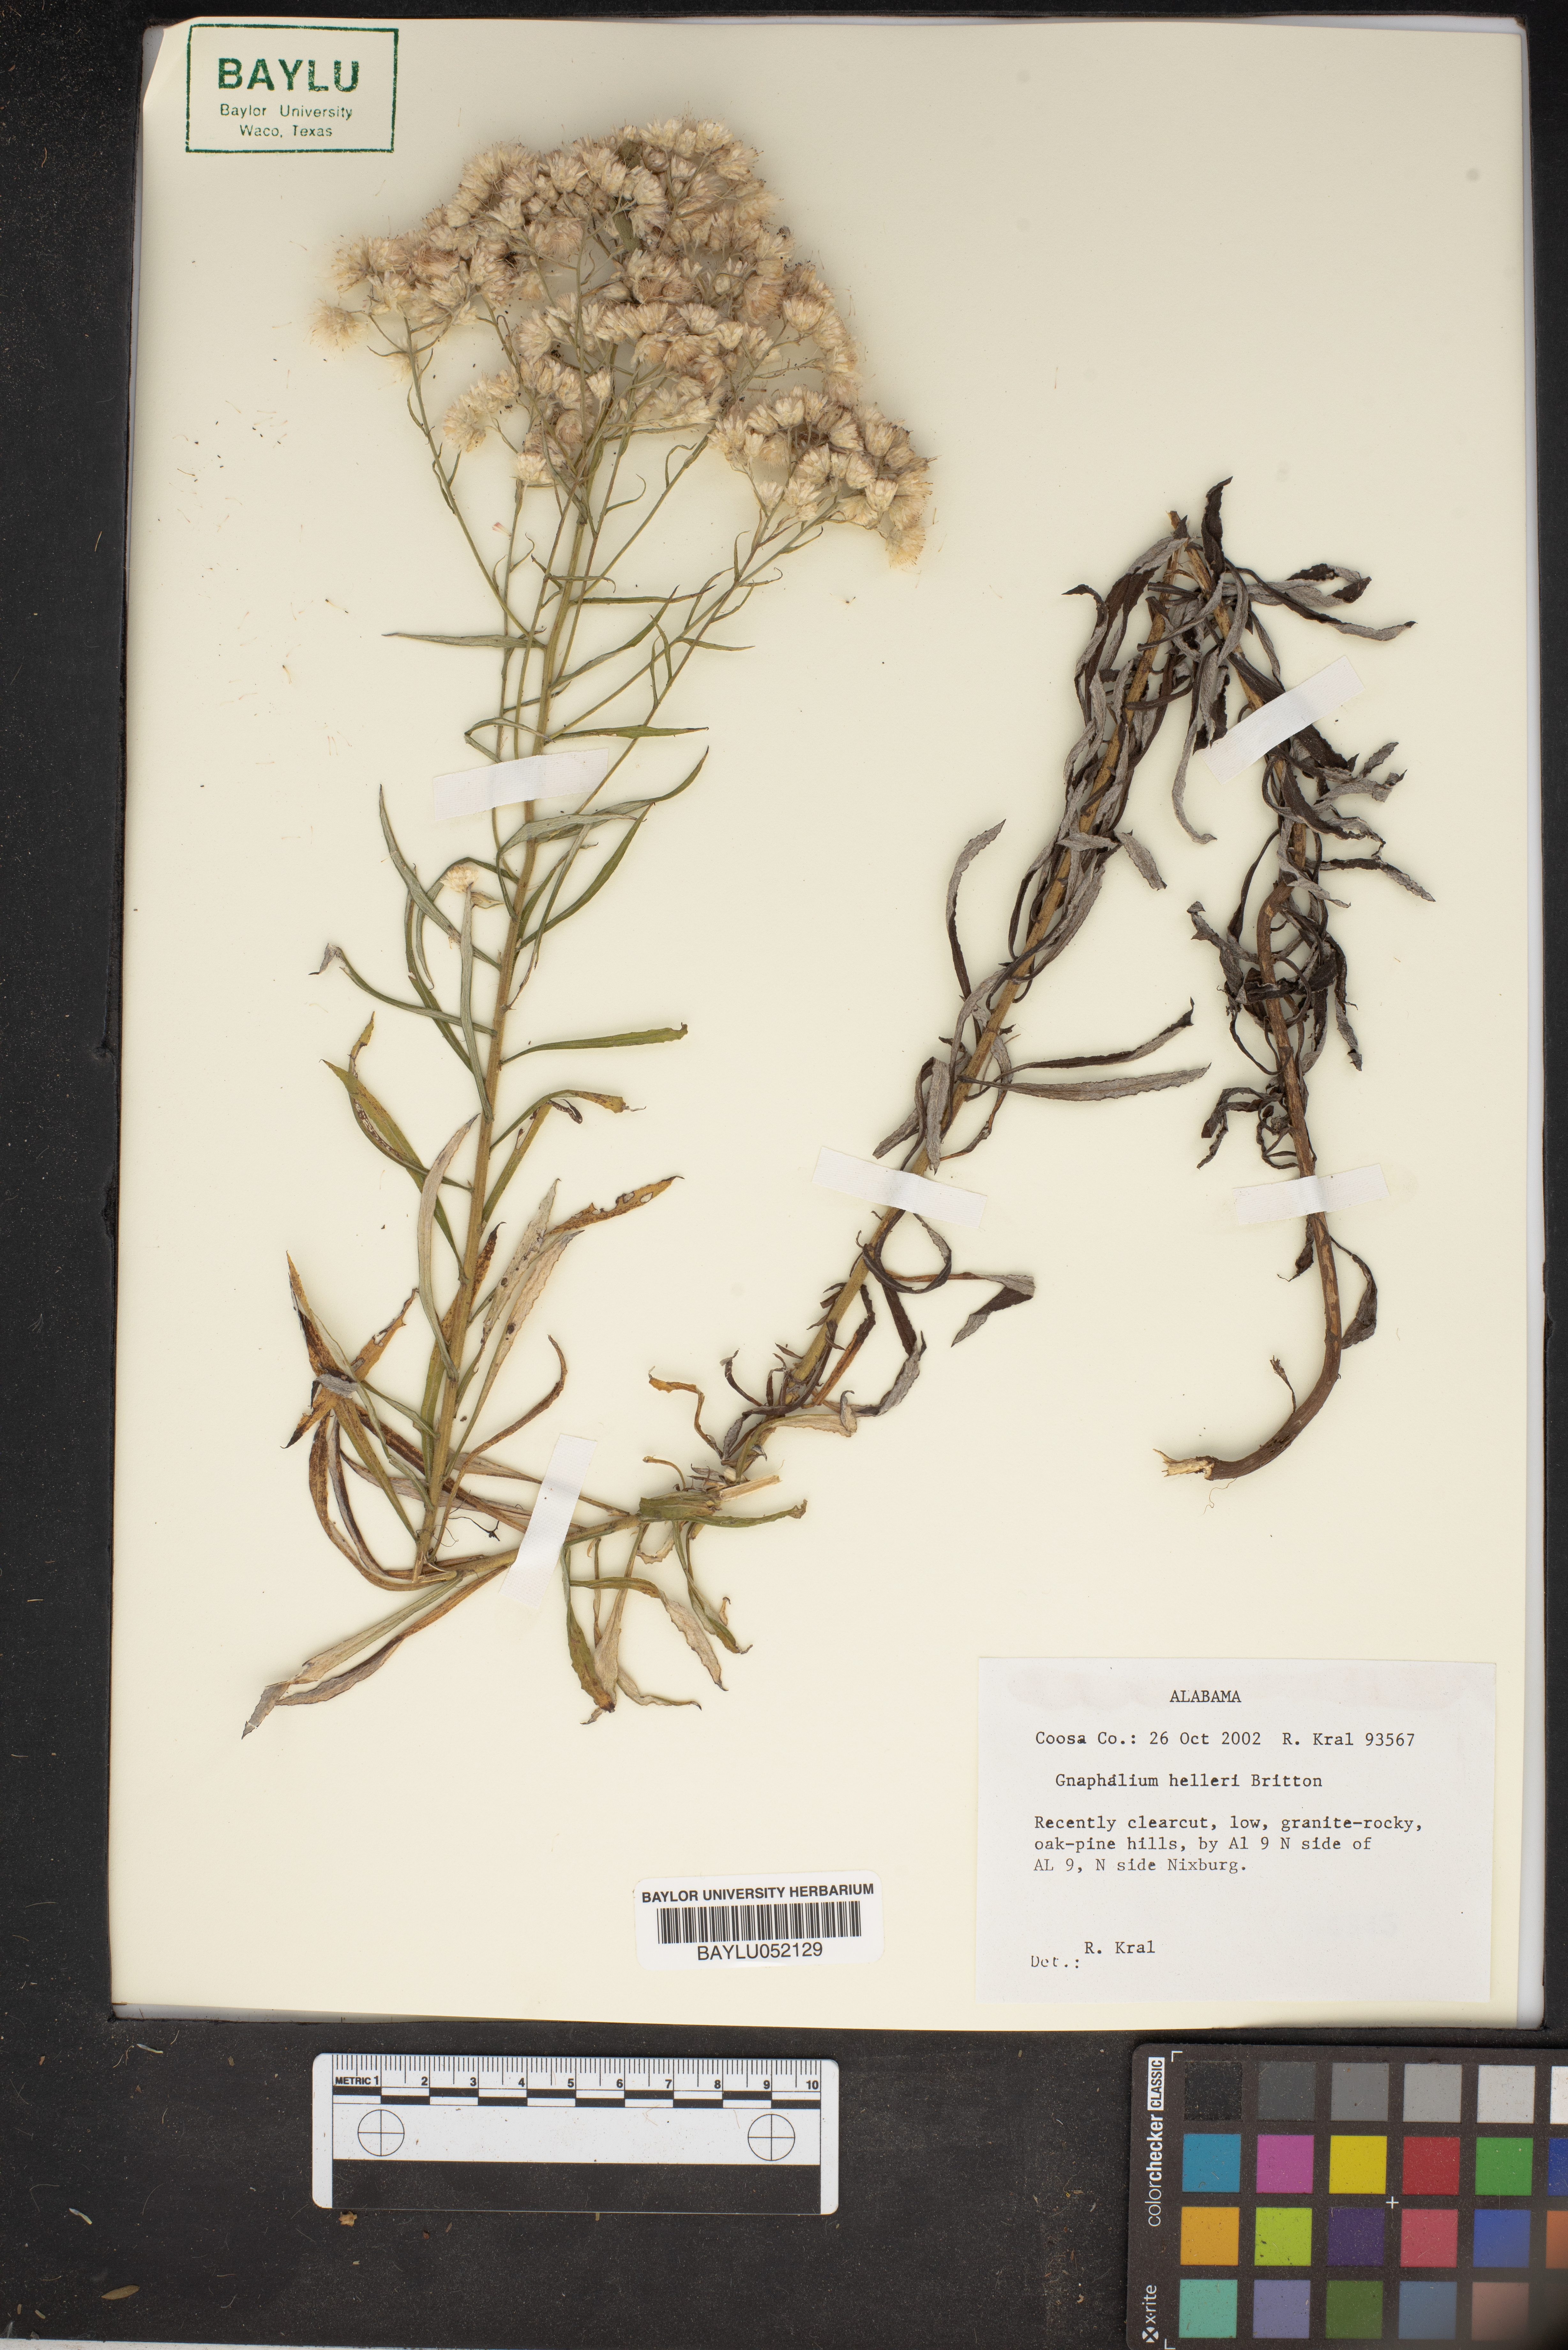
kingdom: Plantae
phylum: Tracheophyta
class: Magnoliopsida
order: Asterales
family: Asteraceae
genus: Pseudognaphalium
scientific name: Pseudognaphalium helleri
